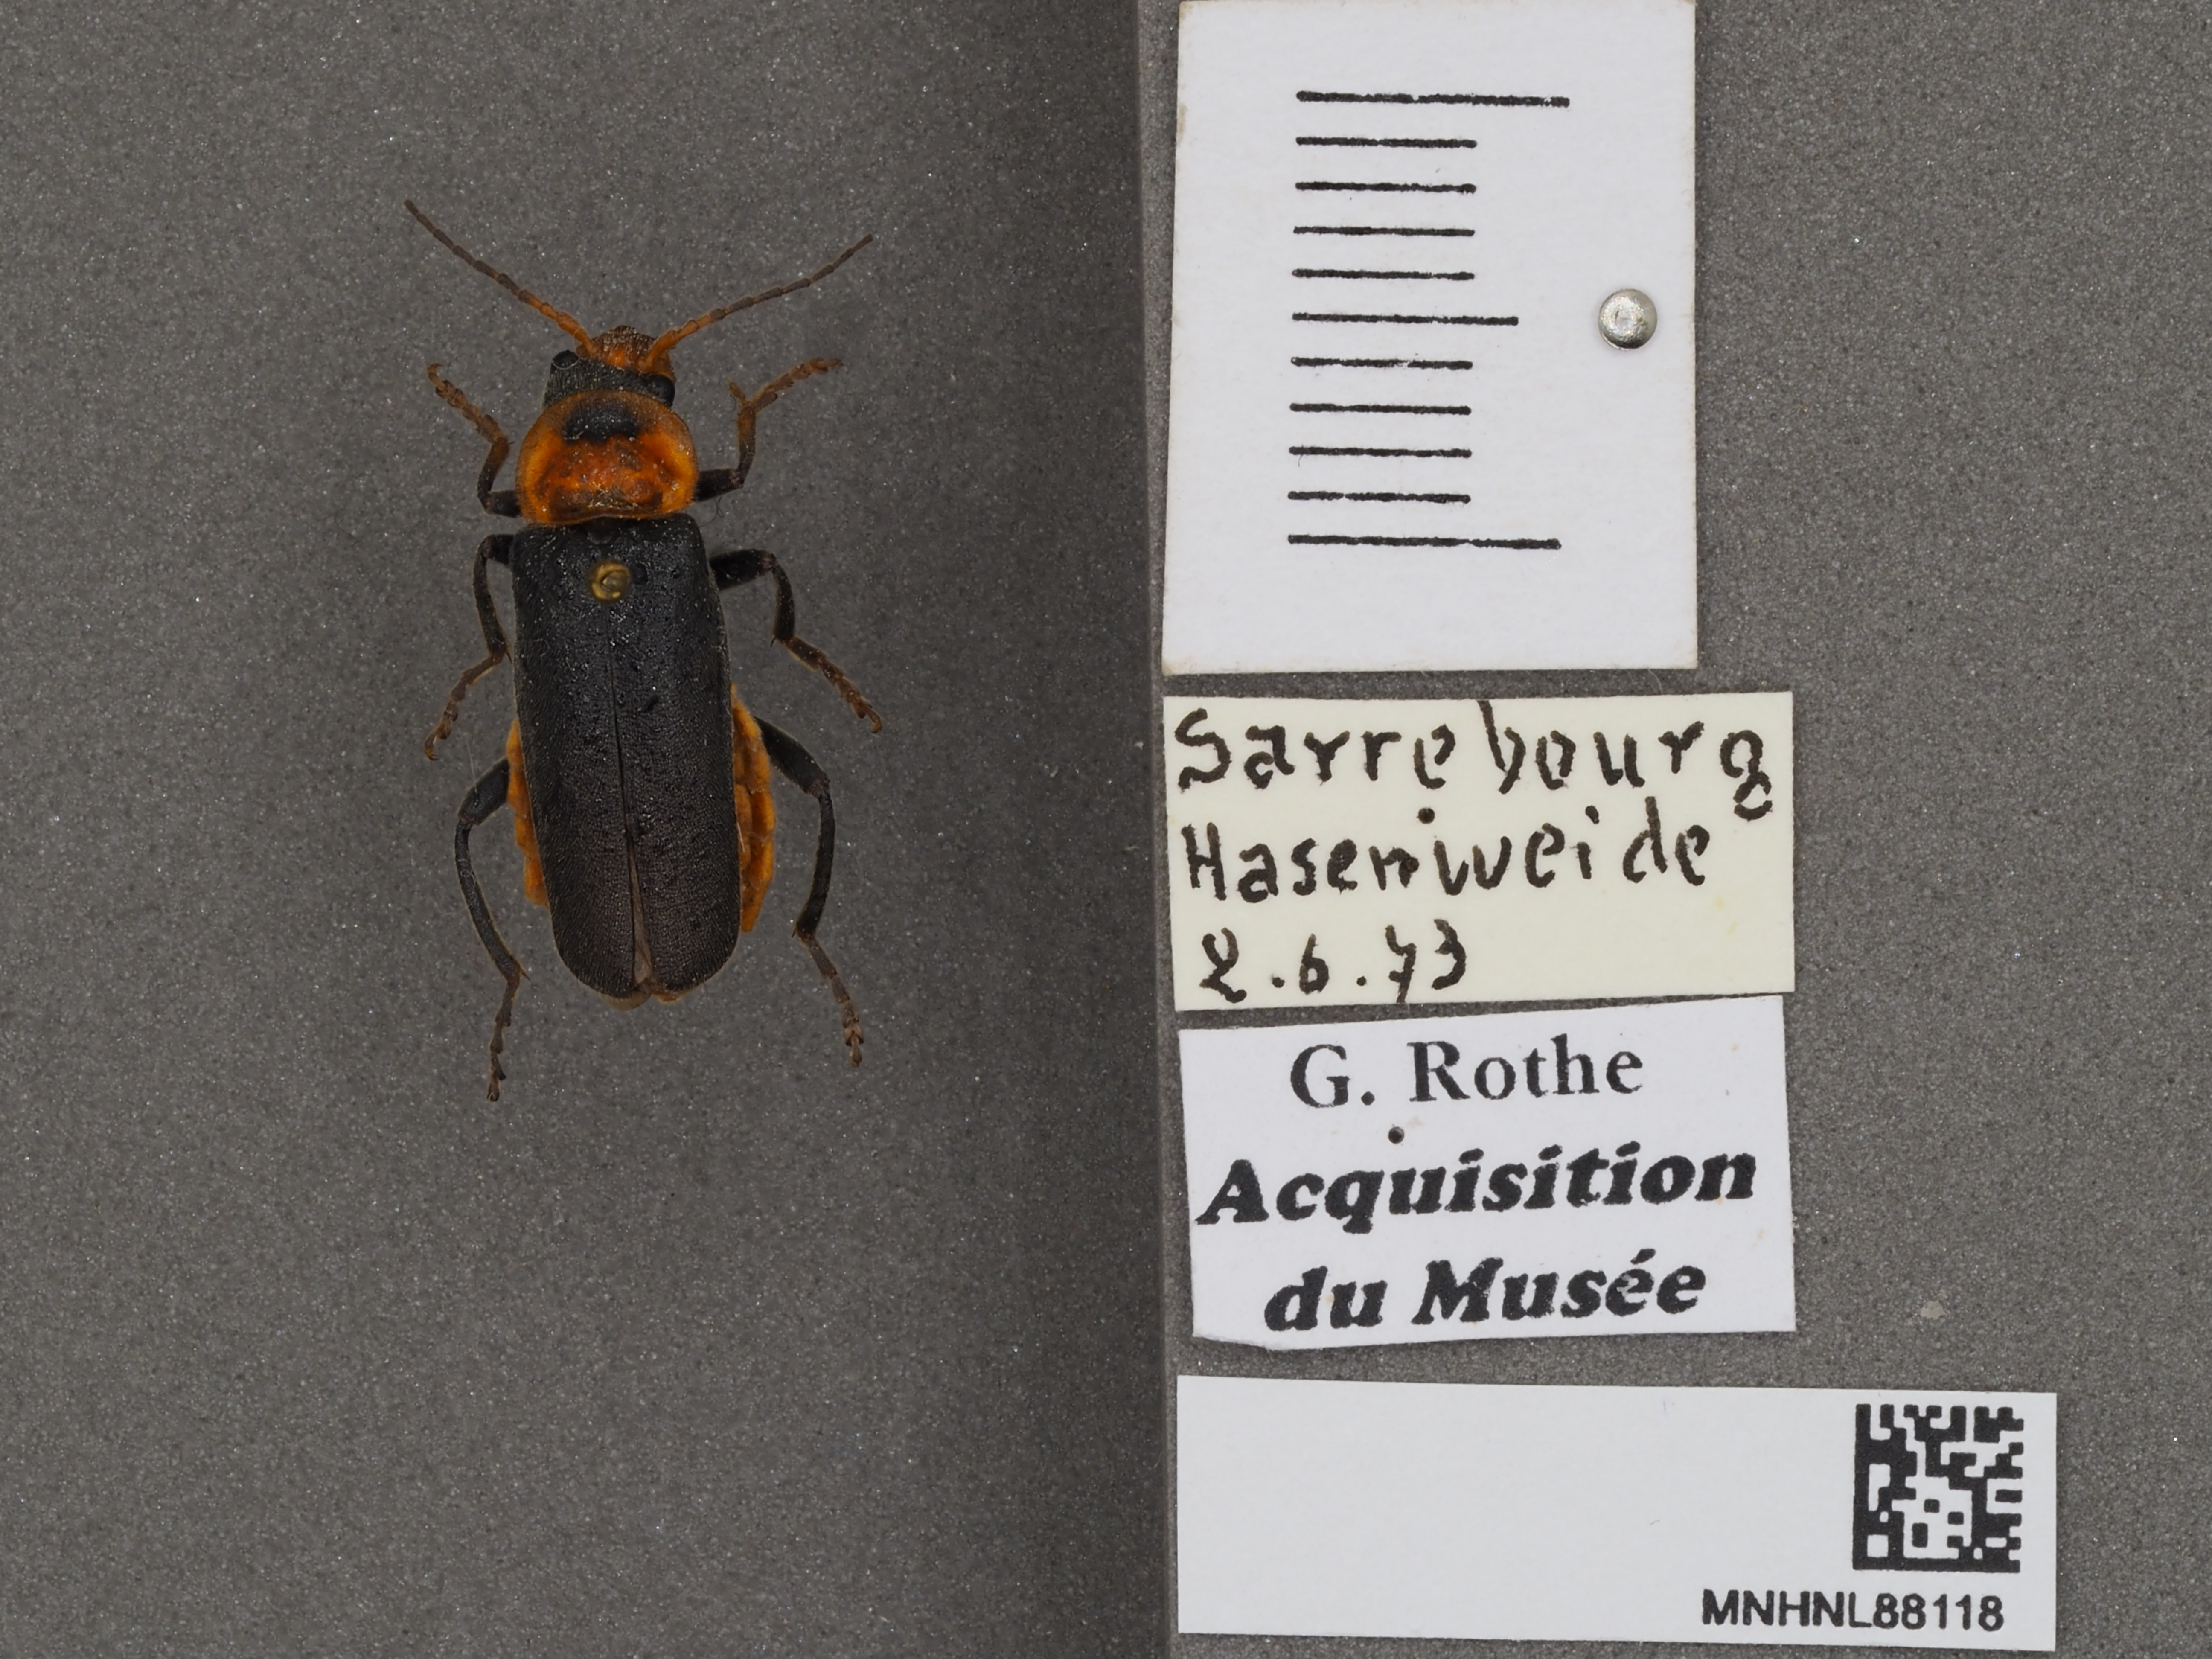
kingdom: Animalia
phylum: Arthropoda
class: Insecta
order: Coleoptera
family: Cantharidae
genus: Cantharis
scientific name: Cantharis fusca
